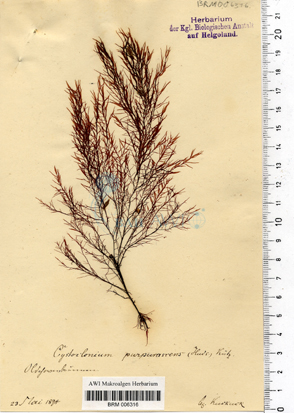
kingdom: Plantae
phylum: Rhodophyta
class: Florideophyceae
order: Gigartinales
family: Cystocloniaceae
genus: Cystoclonium
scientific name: Cystoclonium purpureum
